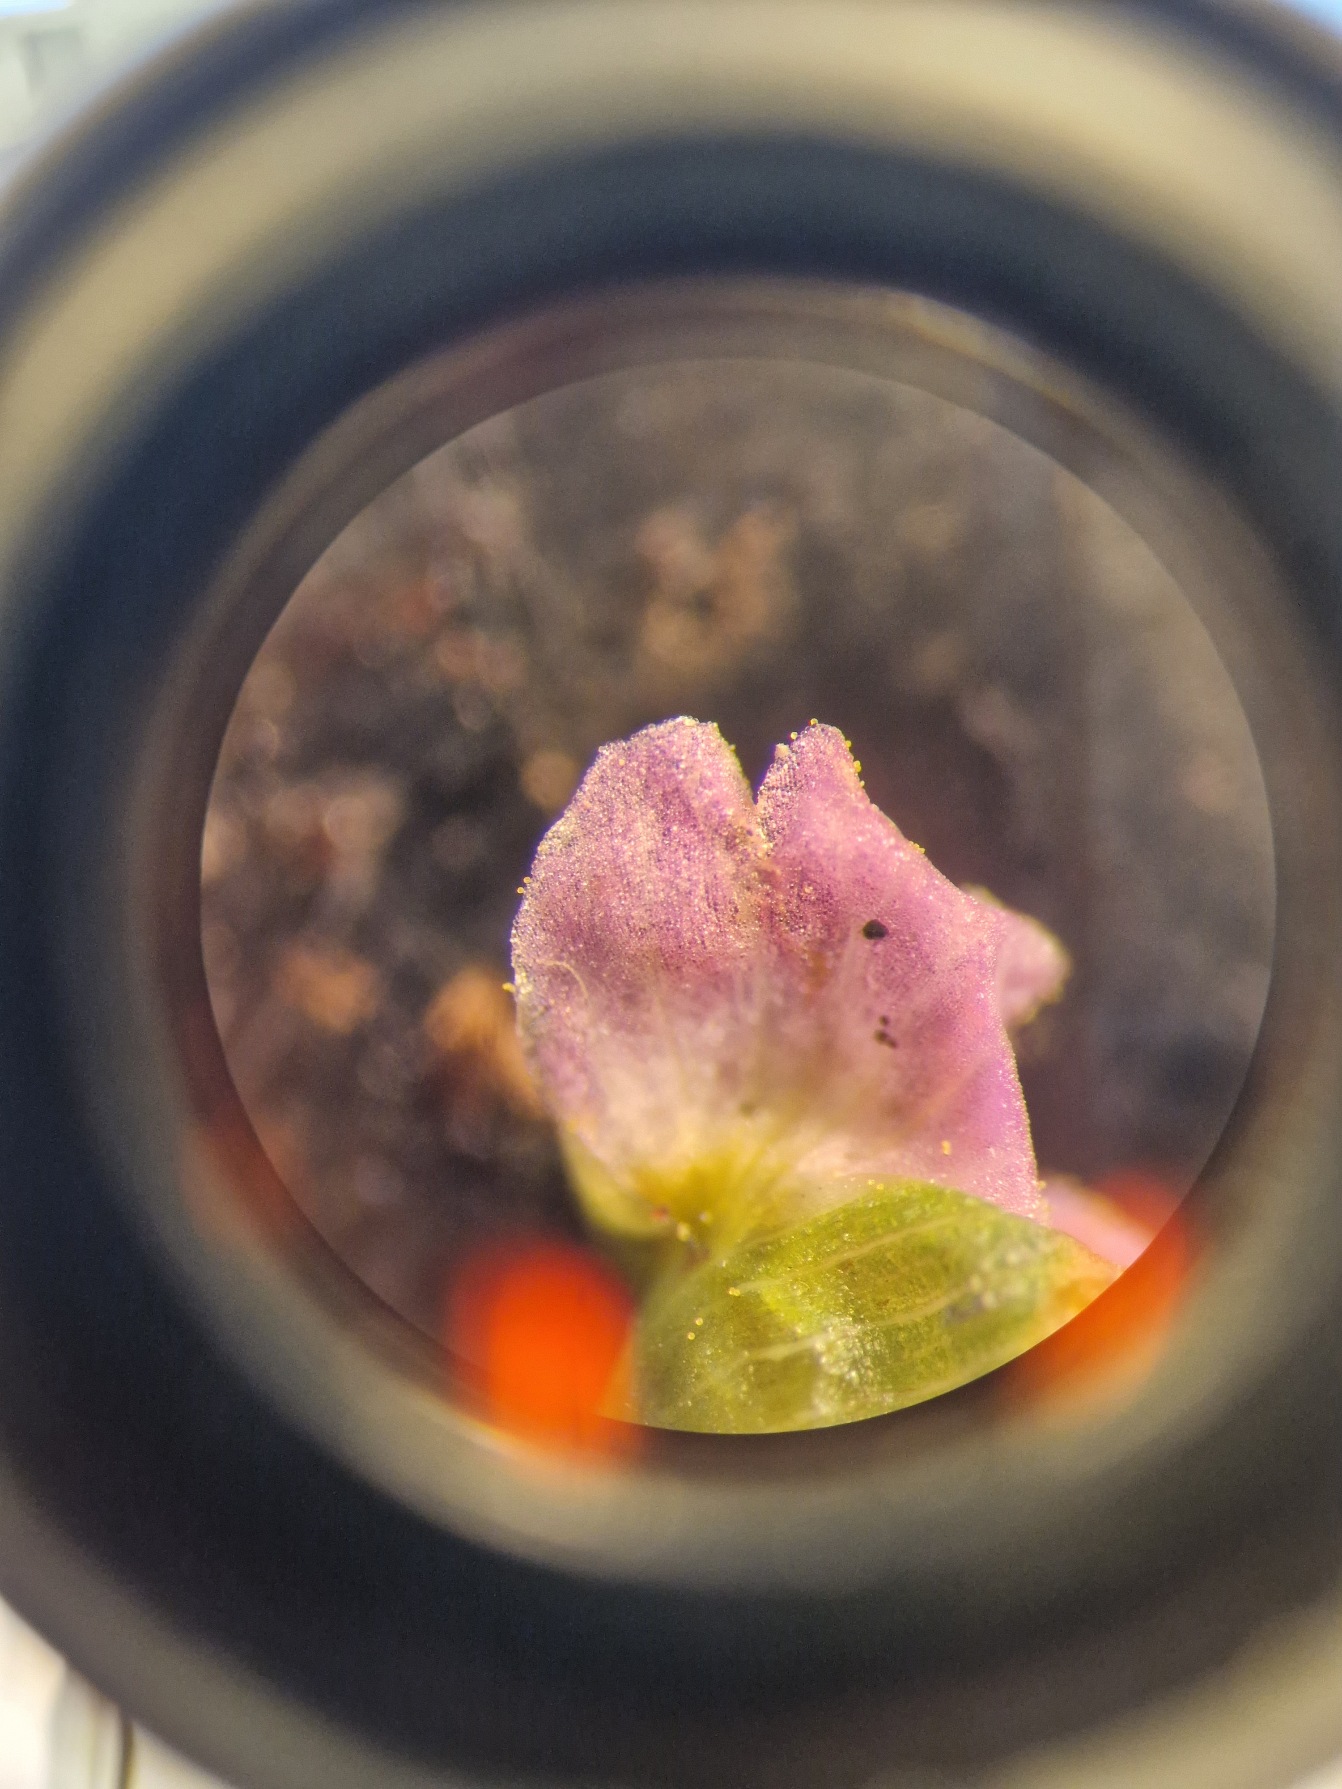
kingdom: Plantae
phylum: Tracheophyta
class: Liliopsida
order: Alismatales
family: Alismataceae
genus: Alisma
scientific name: Alisma lanceolatum
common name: Lancet-skeblad
